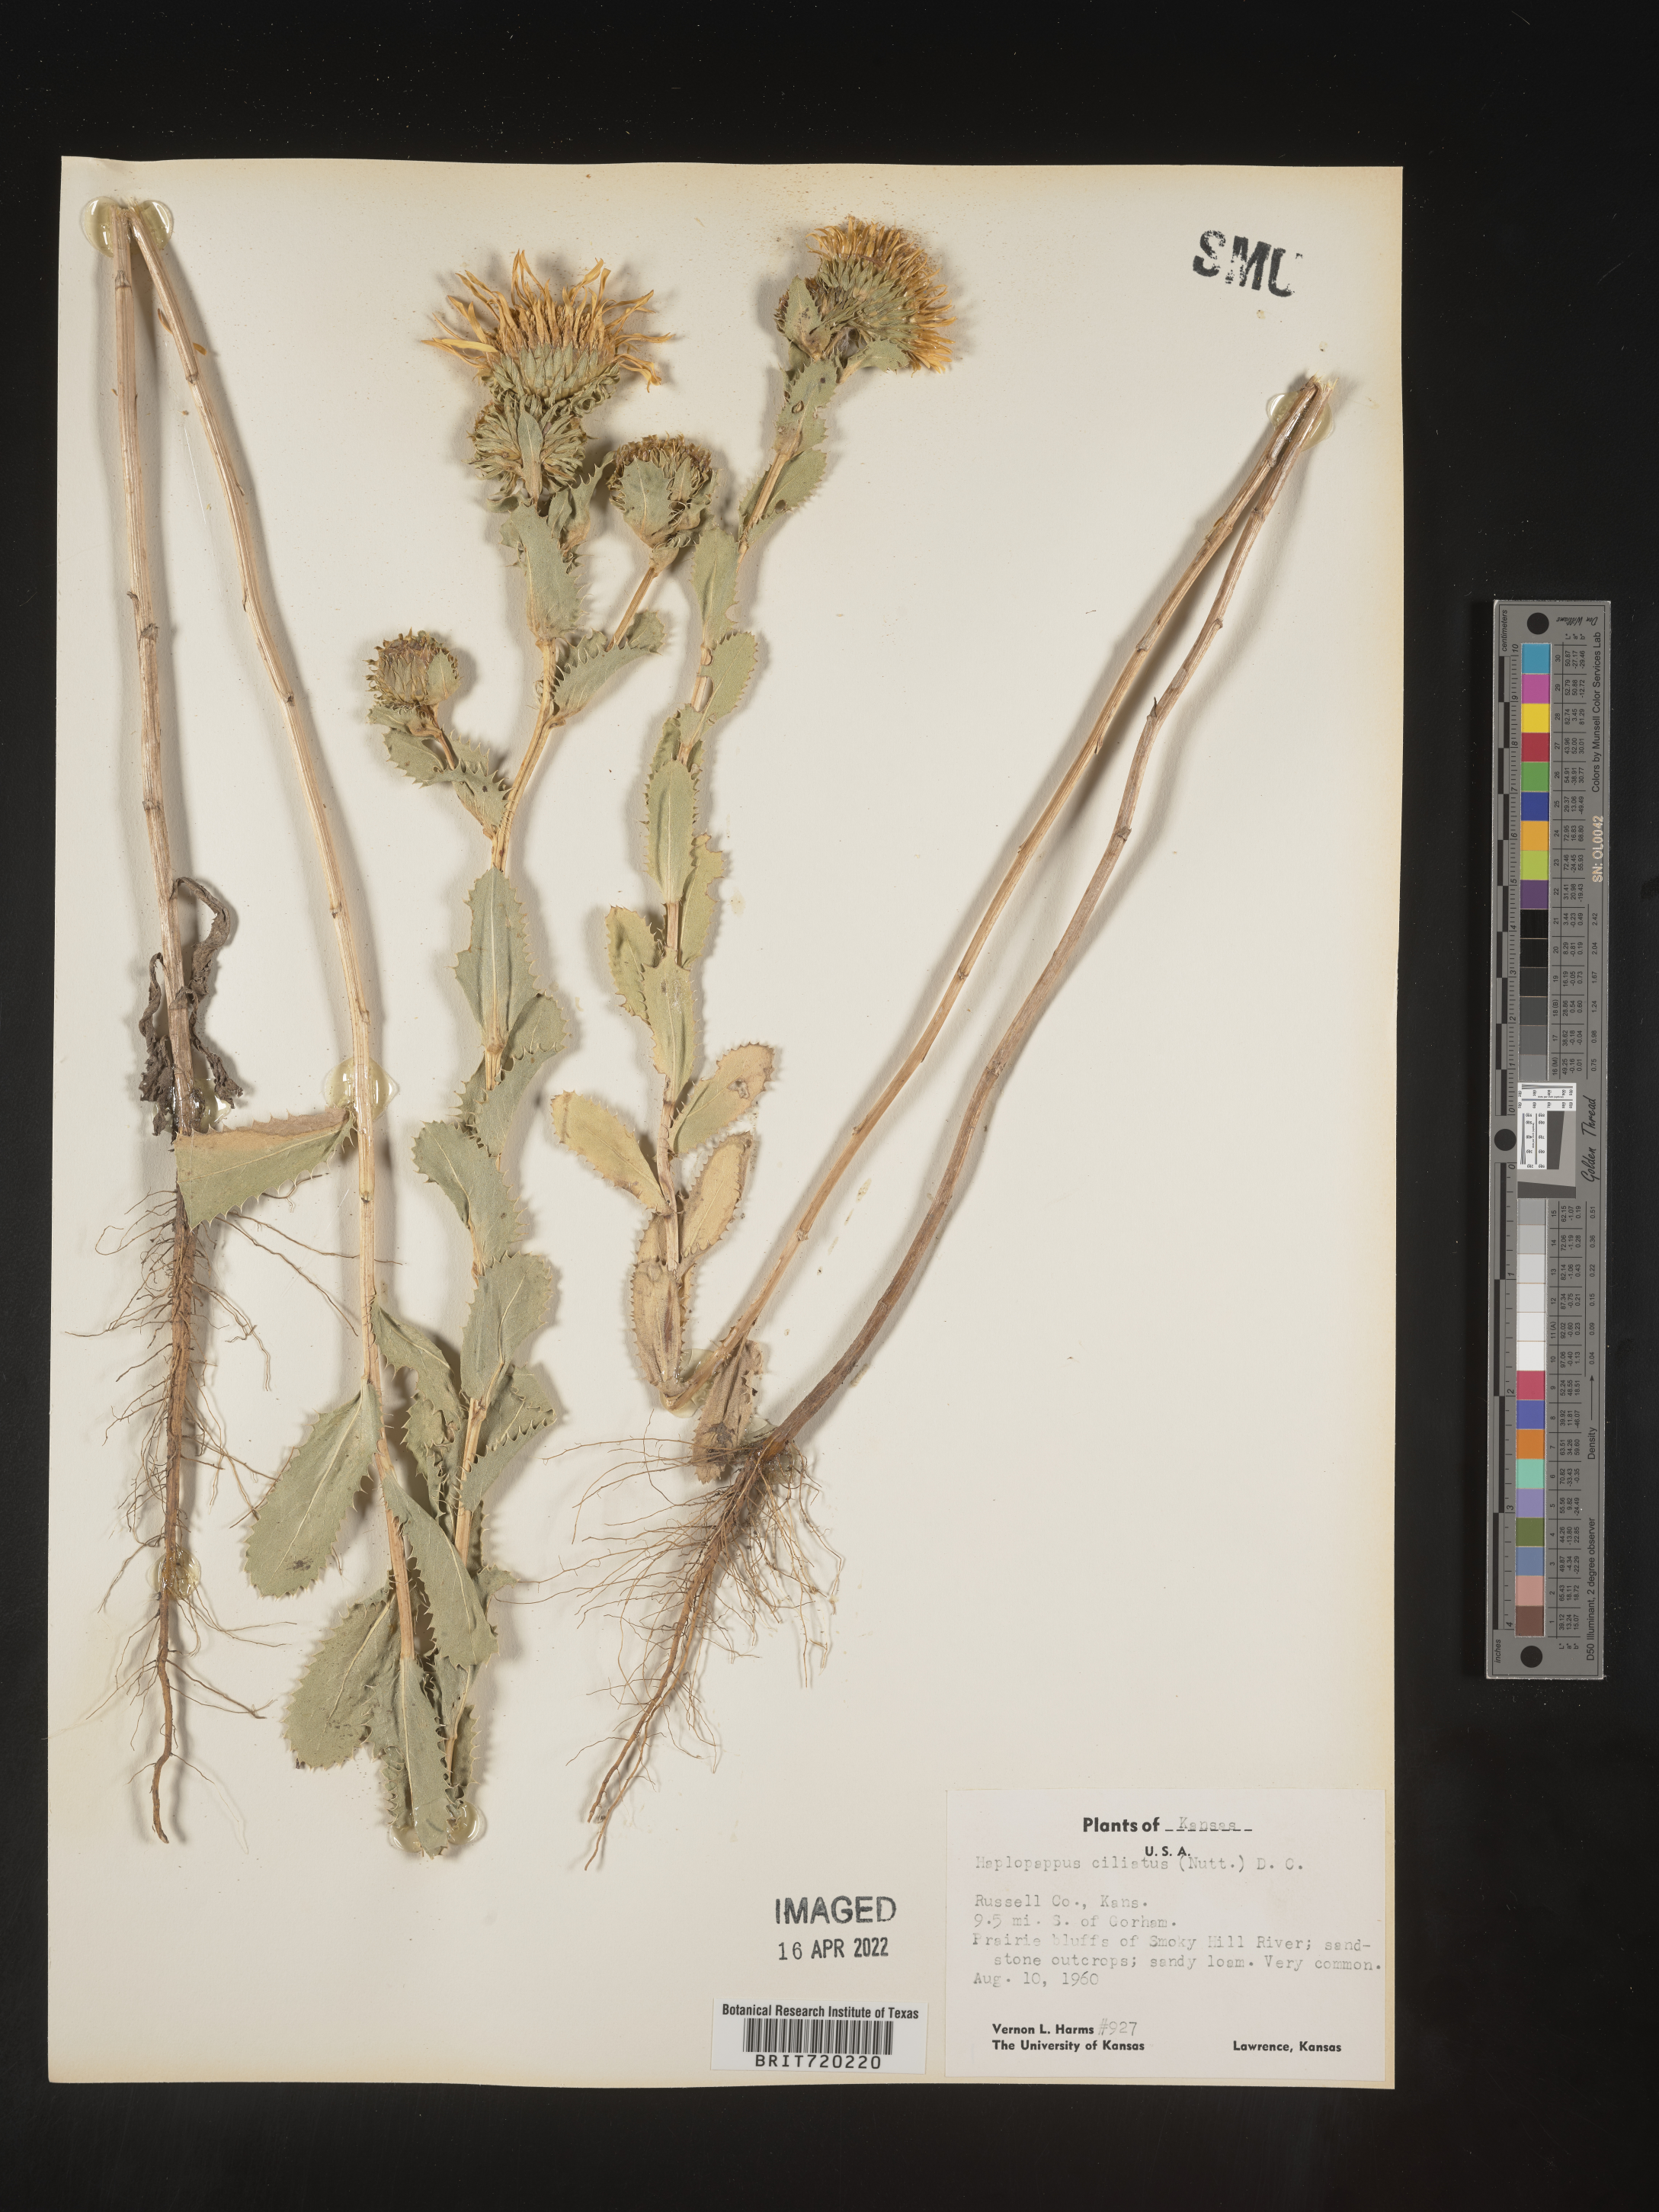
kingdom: Plantae
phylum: Tracheophyta
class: Magnoliopsida
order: Asterales
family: Asteraceae
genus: Grindelia
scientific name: Grindelia ciliata
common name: Goldenweed
